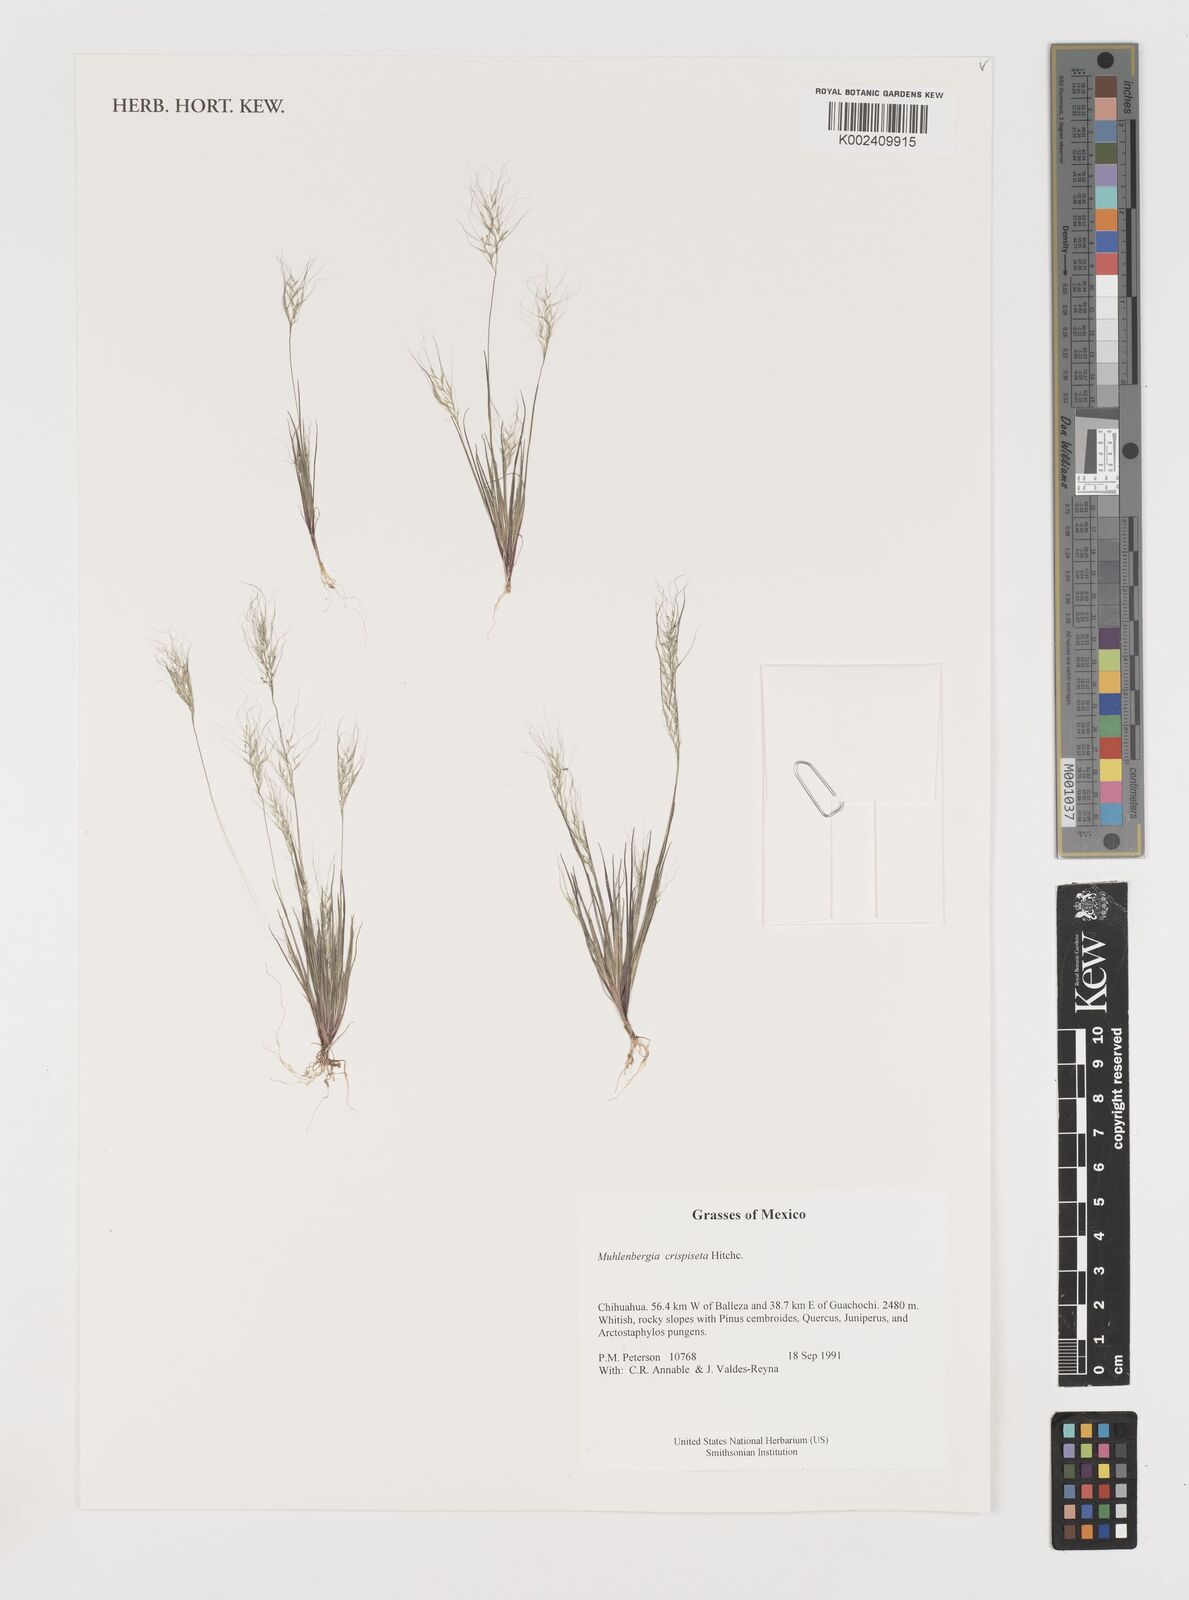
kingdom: Plantae
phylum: Tracheophyta
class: Liliopsida
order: Poales
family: Poaceae
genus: Muhlenbergia
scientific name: Muhlenbergia crispiseta
